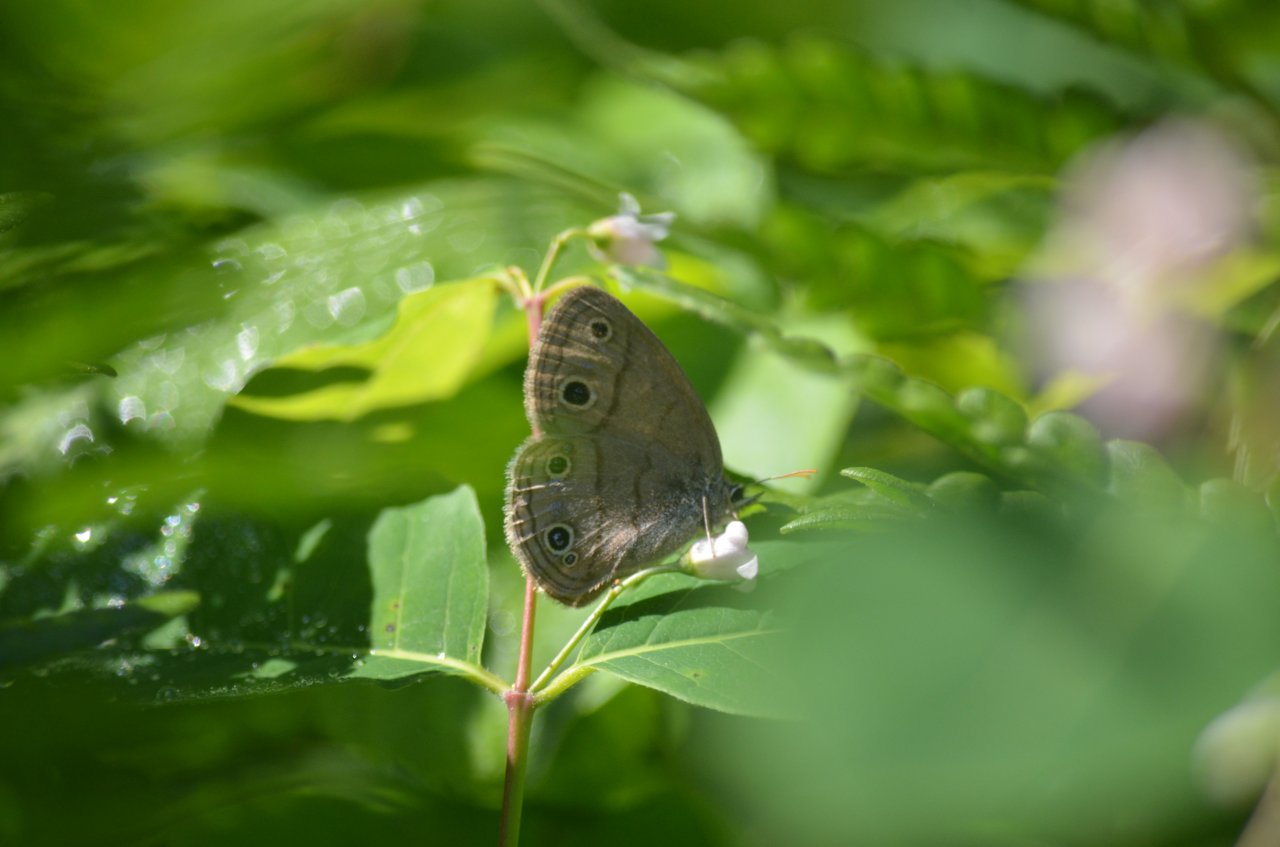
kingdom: Animalia
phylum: Arthropoda
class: Insecta
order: Lepidoptera
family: Nymphalidae
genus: Euptychia
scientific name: Euptychia cymela
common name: Little Wood Satyr
